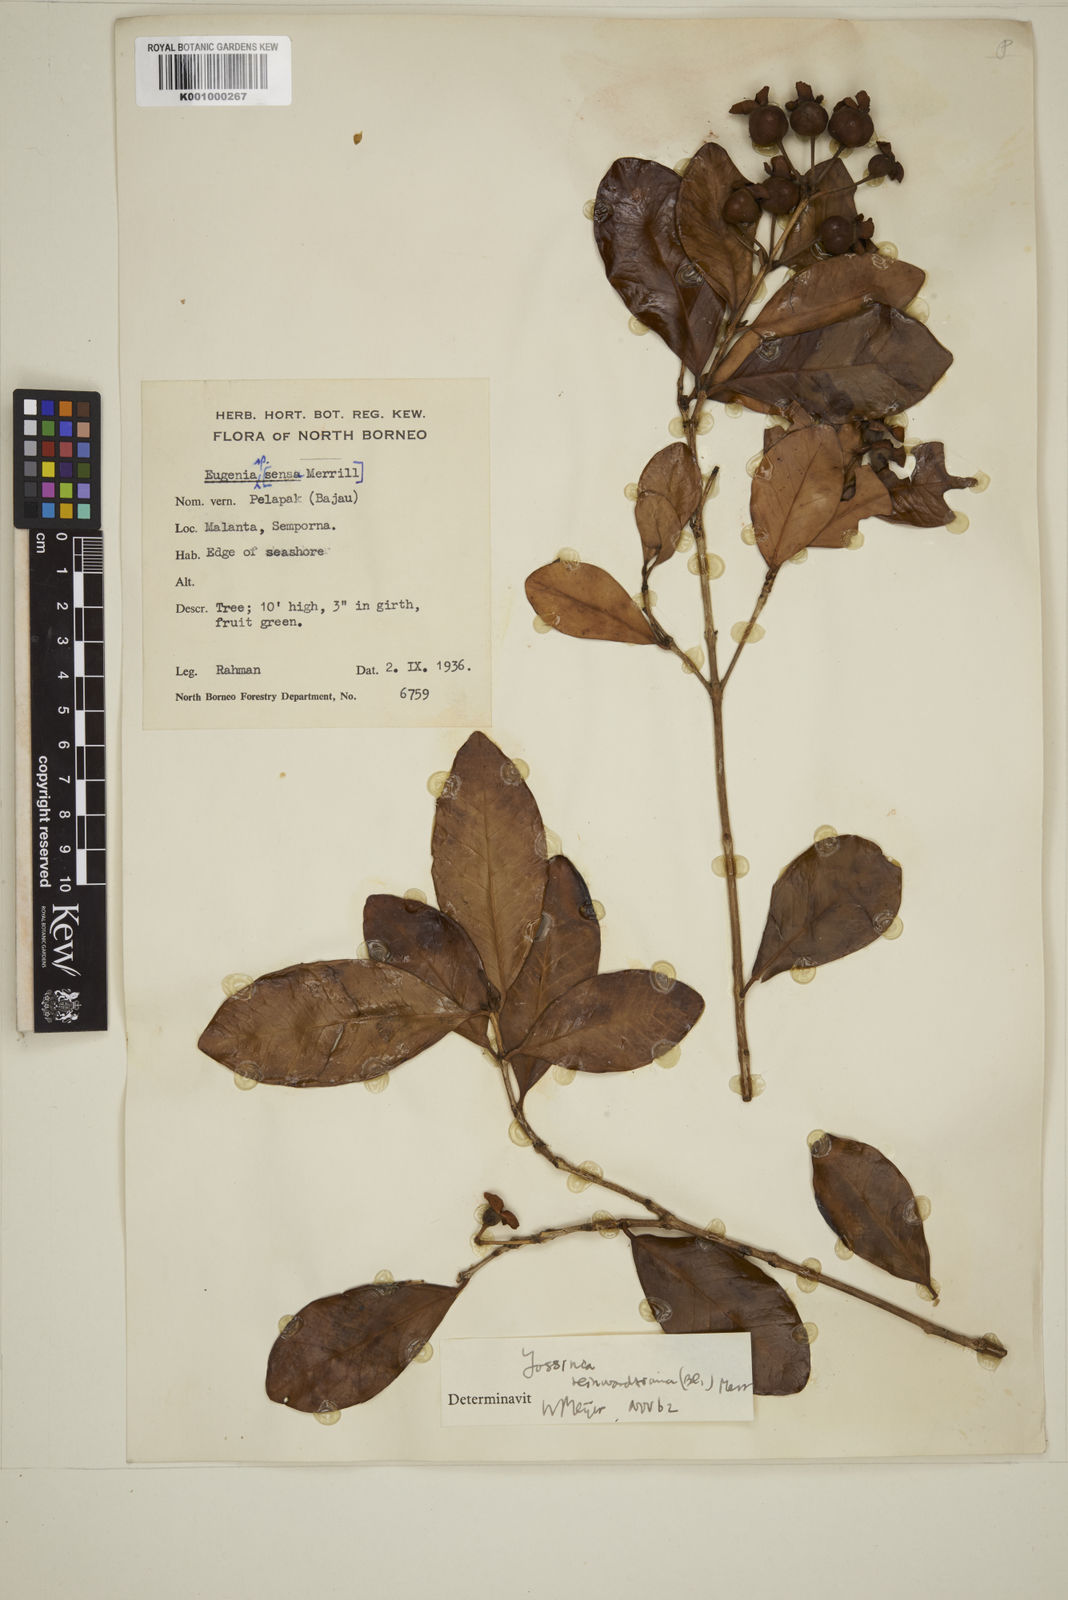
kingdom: Plantae
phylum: Tracheophyta
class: Magnoliopsida
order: Myrtales
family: Myrtaceae
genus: Eugenia
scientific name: Eugenia reinwardtiana
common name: Cedar bay-cherry
